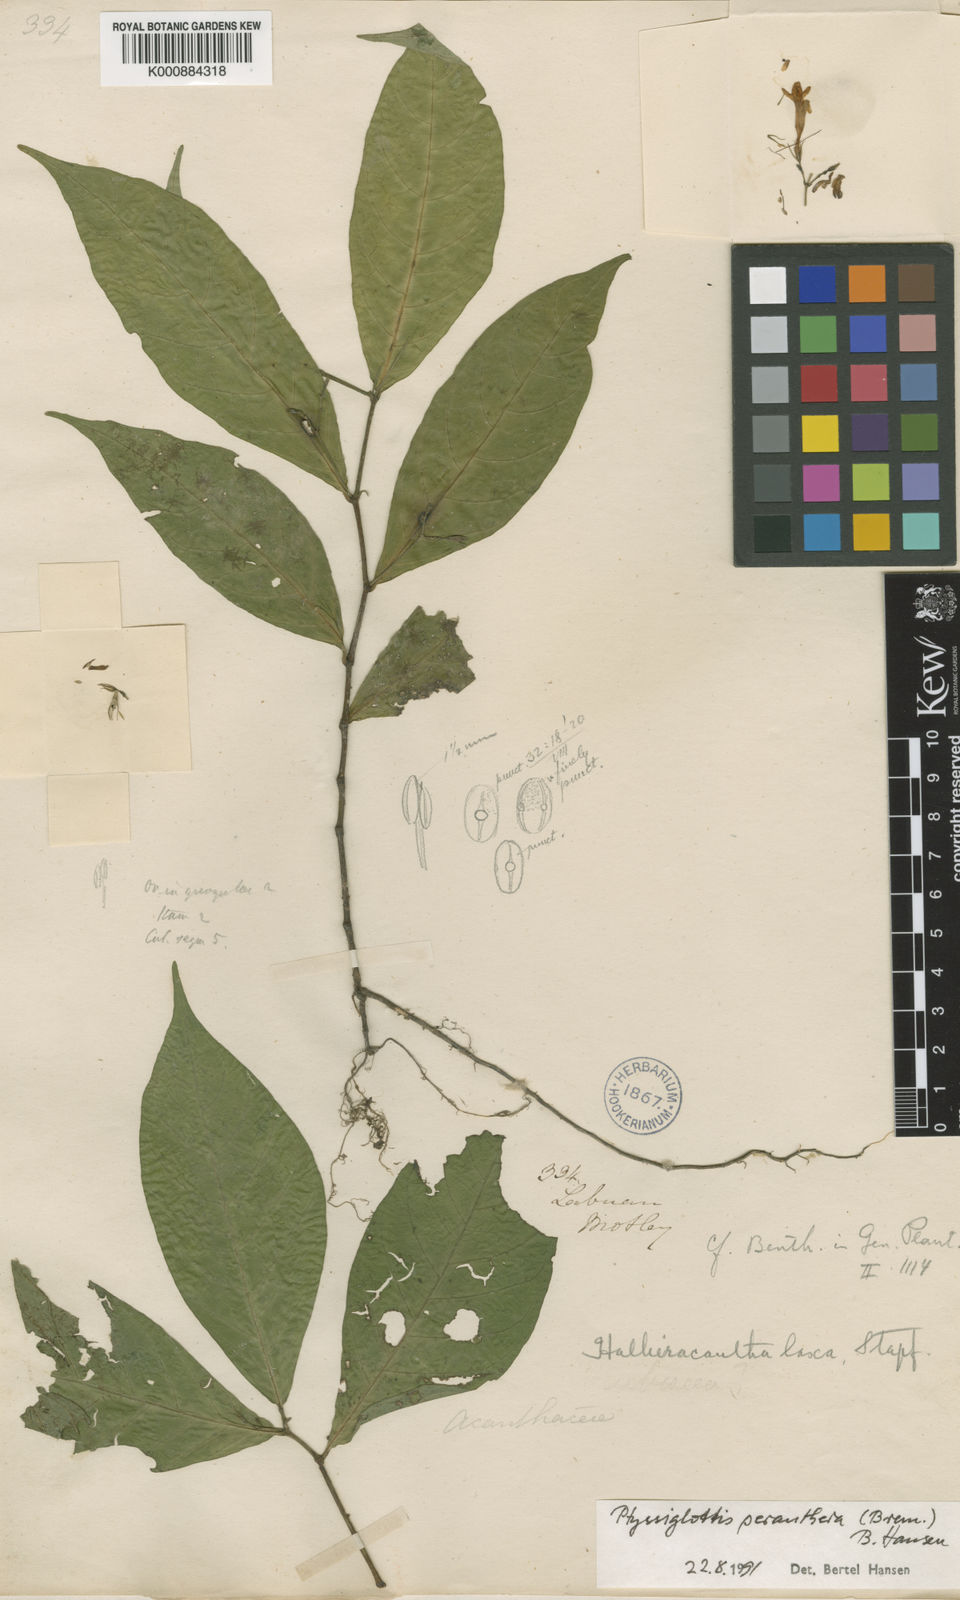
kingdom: Plantae
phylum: Tracheophyta
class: Magnoliopsida
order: Lamiales
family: Acanthaceae
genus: Ptyssiglottis
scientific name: Ptyssiglottis peranthera
